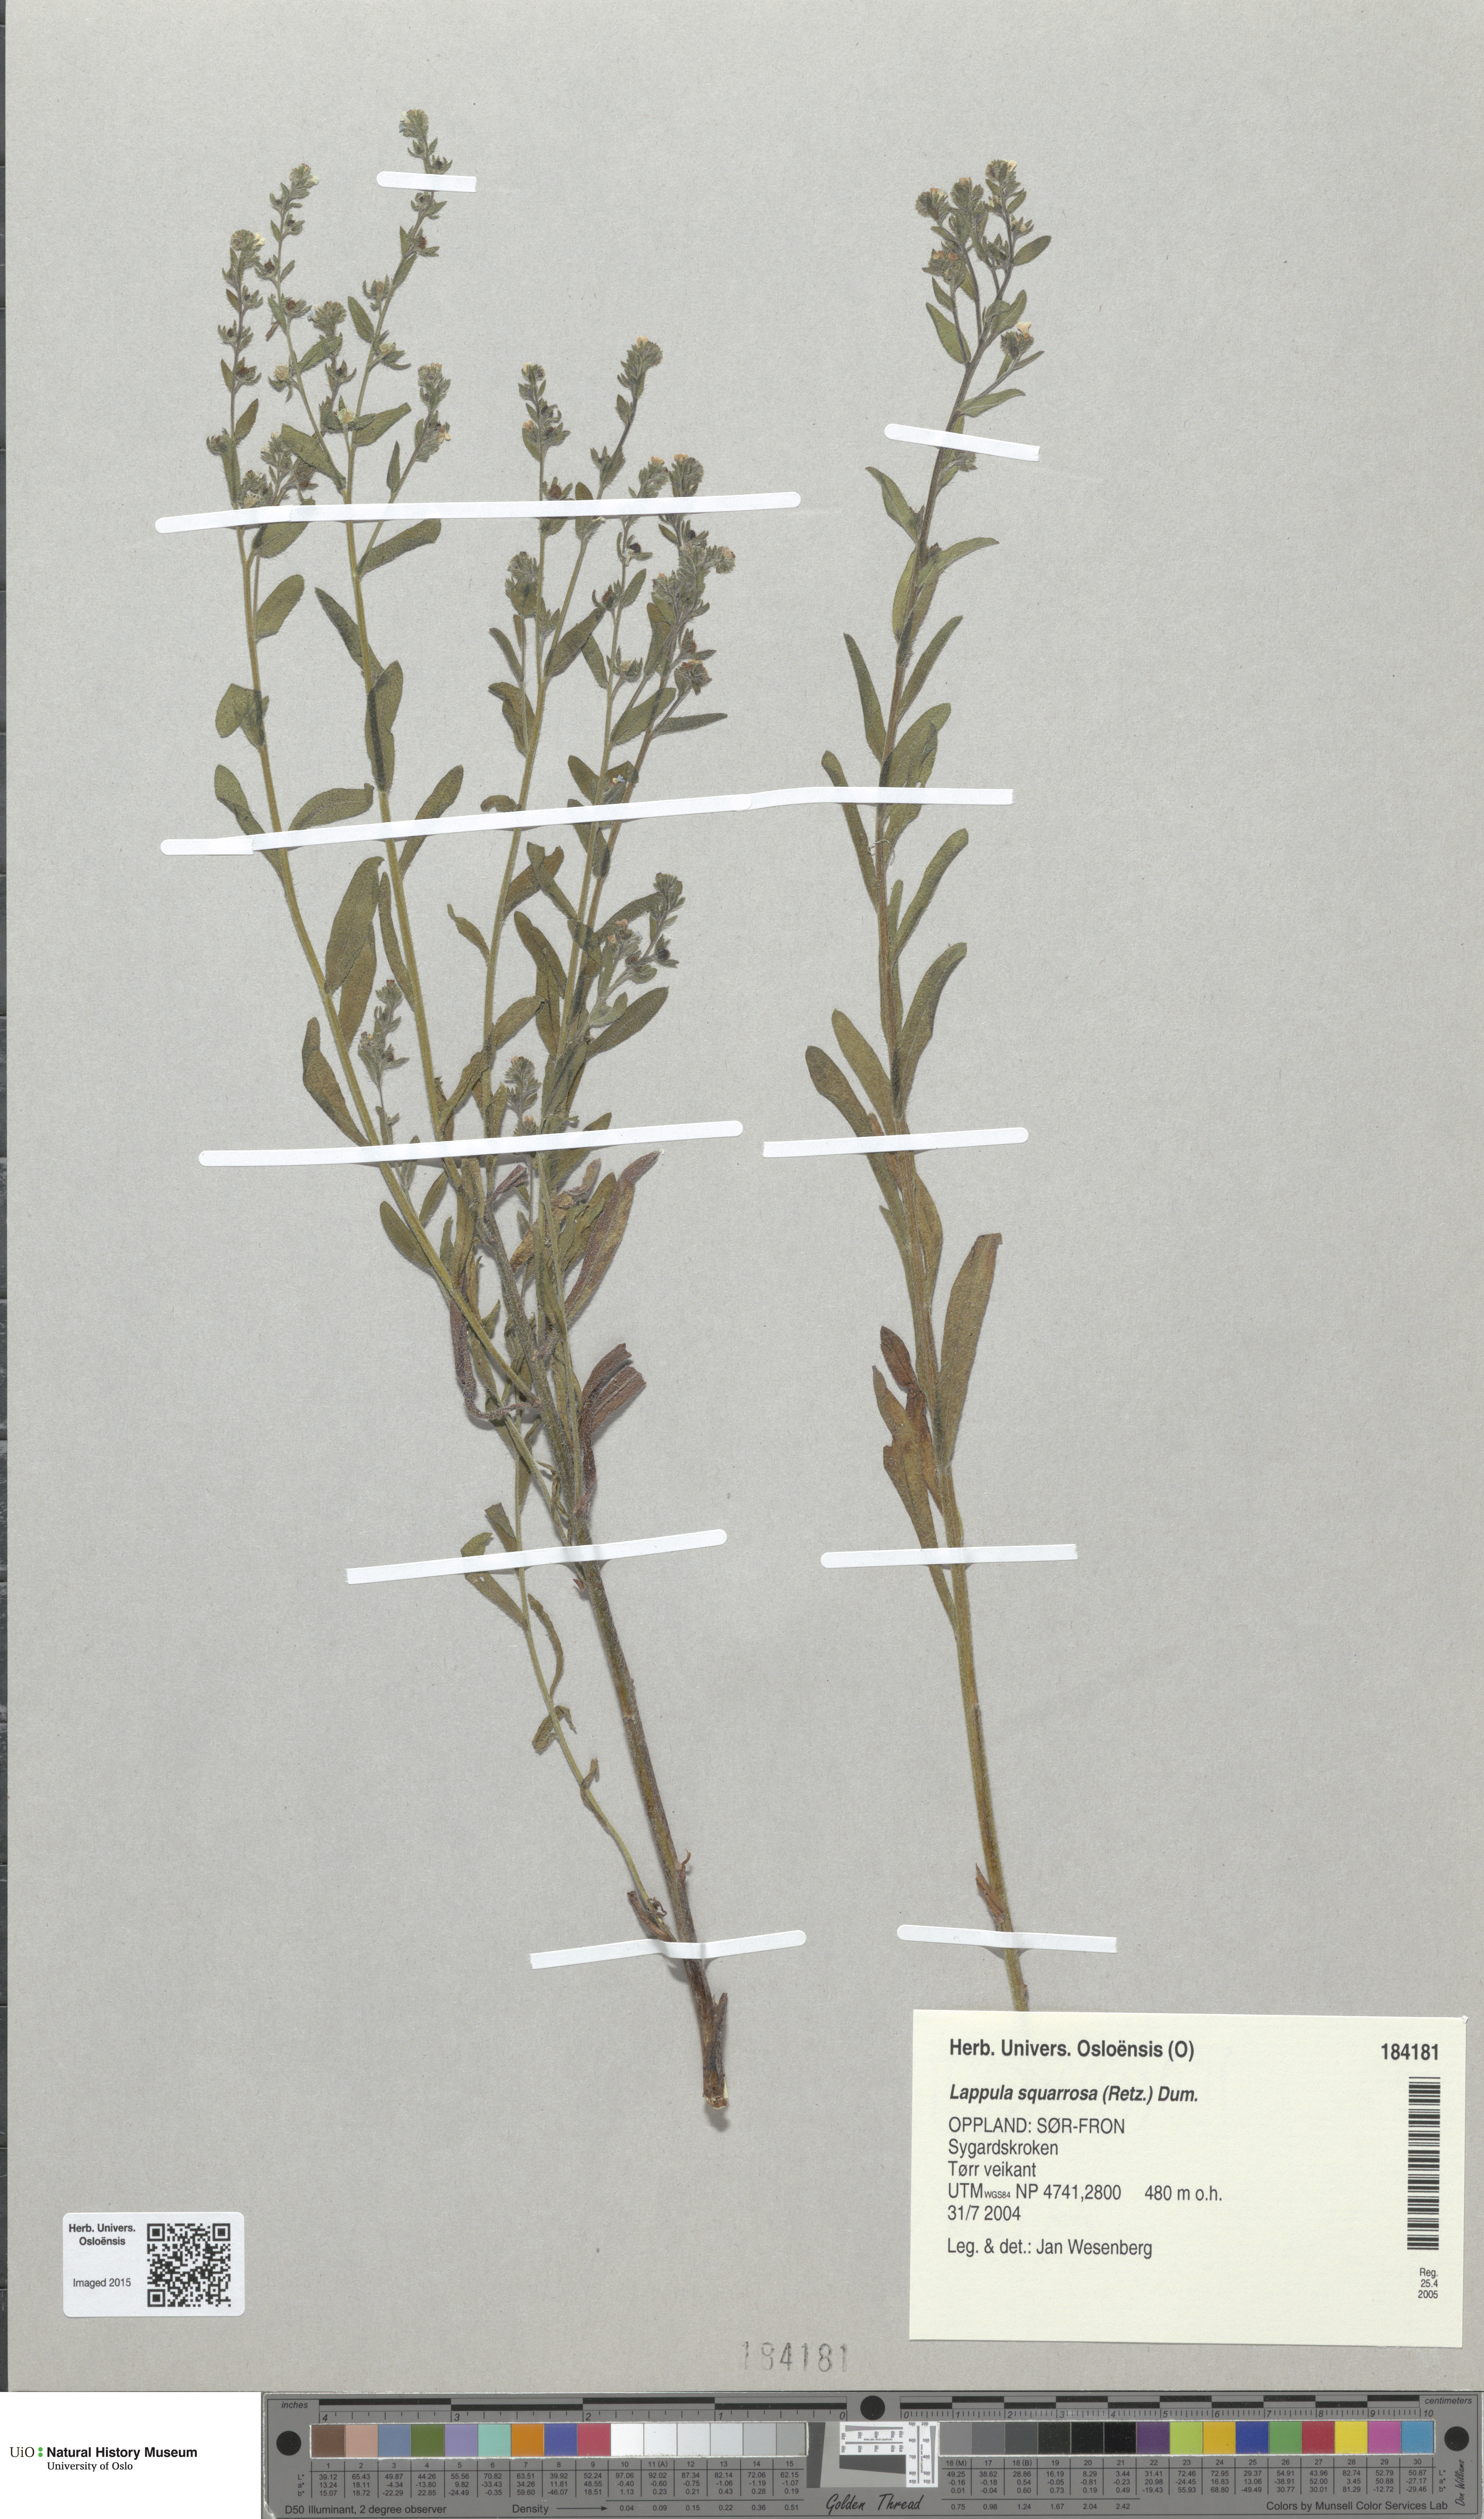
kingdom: Plantae
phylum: Tracheophyta
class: Magnoliopsida
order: Boraginales
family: Boraginaceae
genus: Lappula
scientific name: Lappula squarrosa
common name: European stickseed
